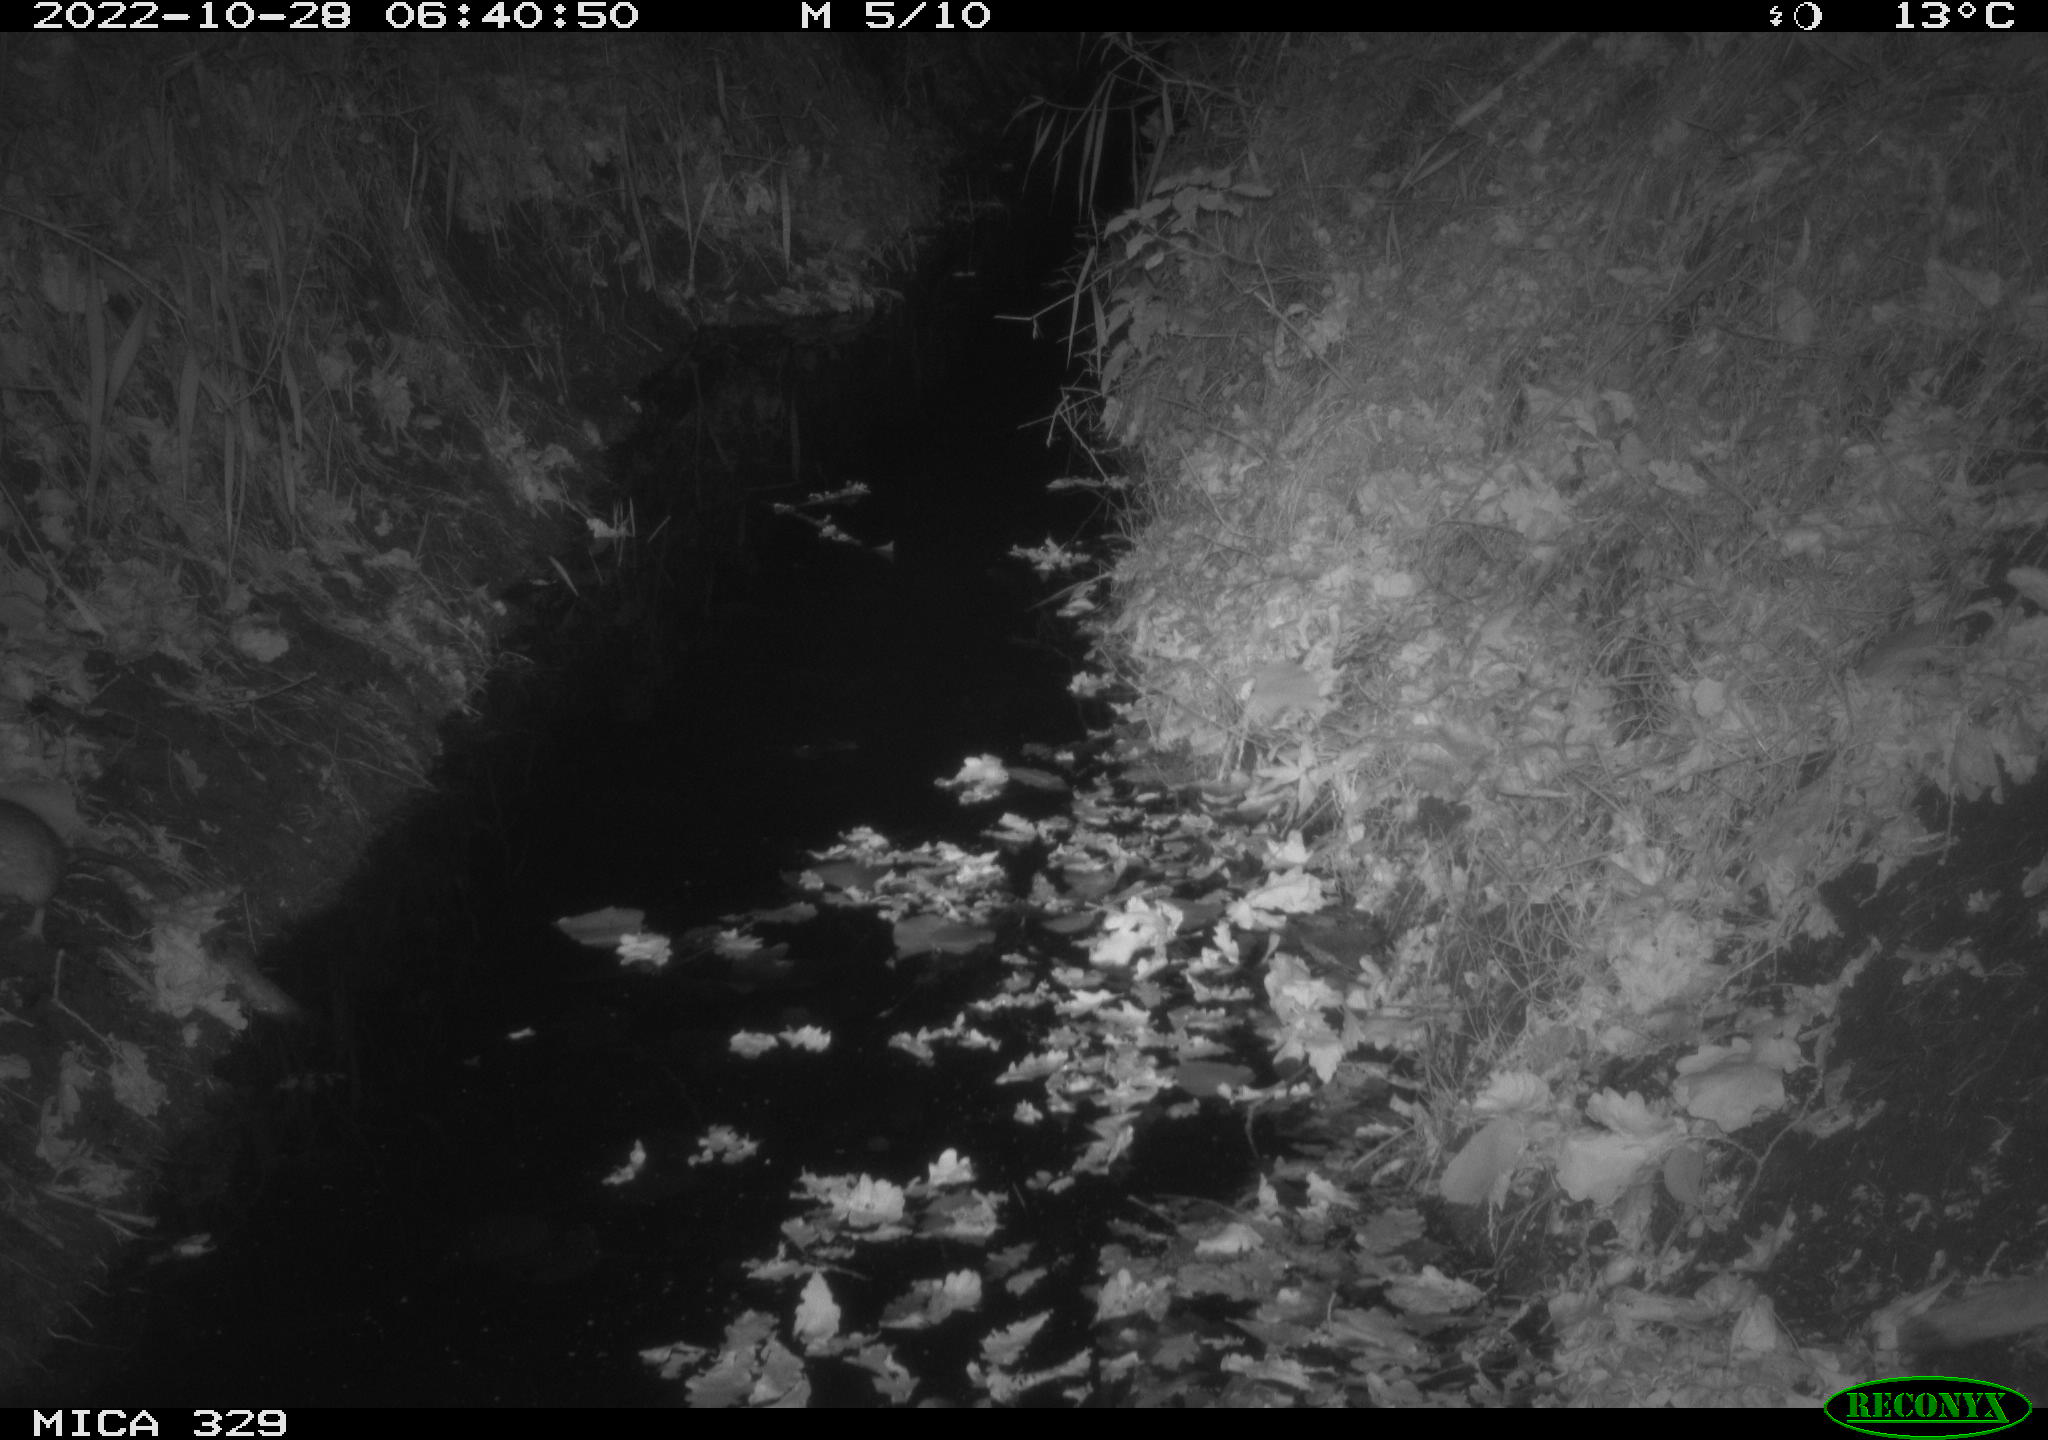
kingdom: Animalia
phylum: Chordata
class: Mammalia
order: Rodentia
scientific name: Rodentia
